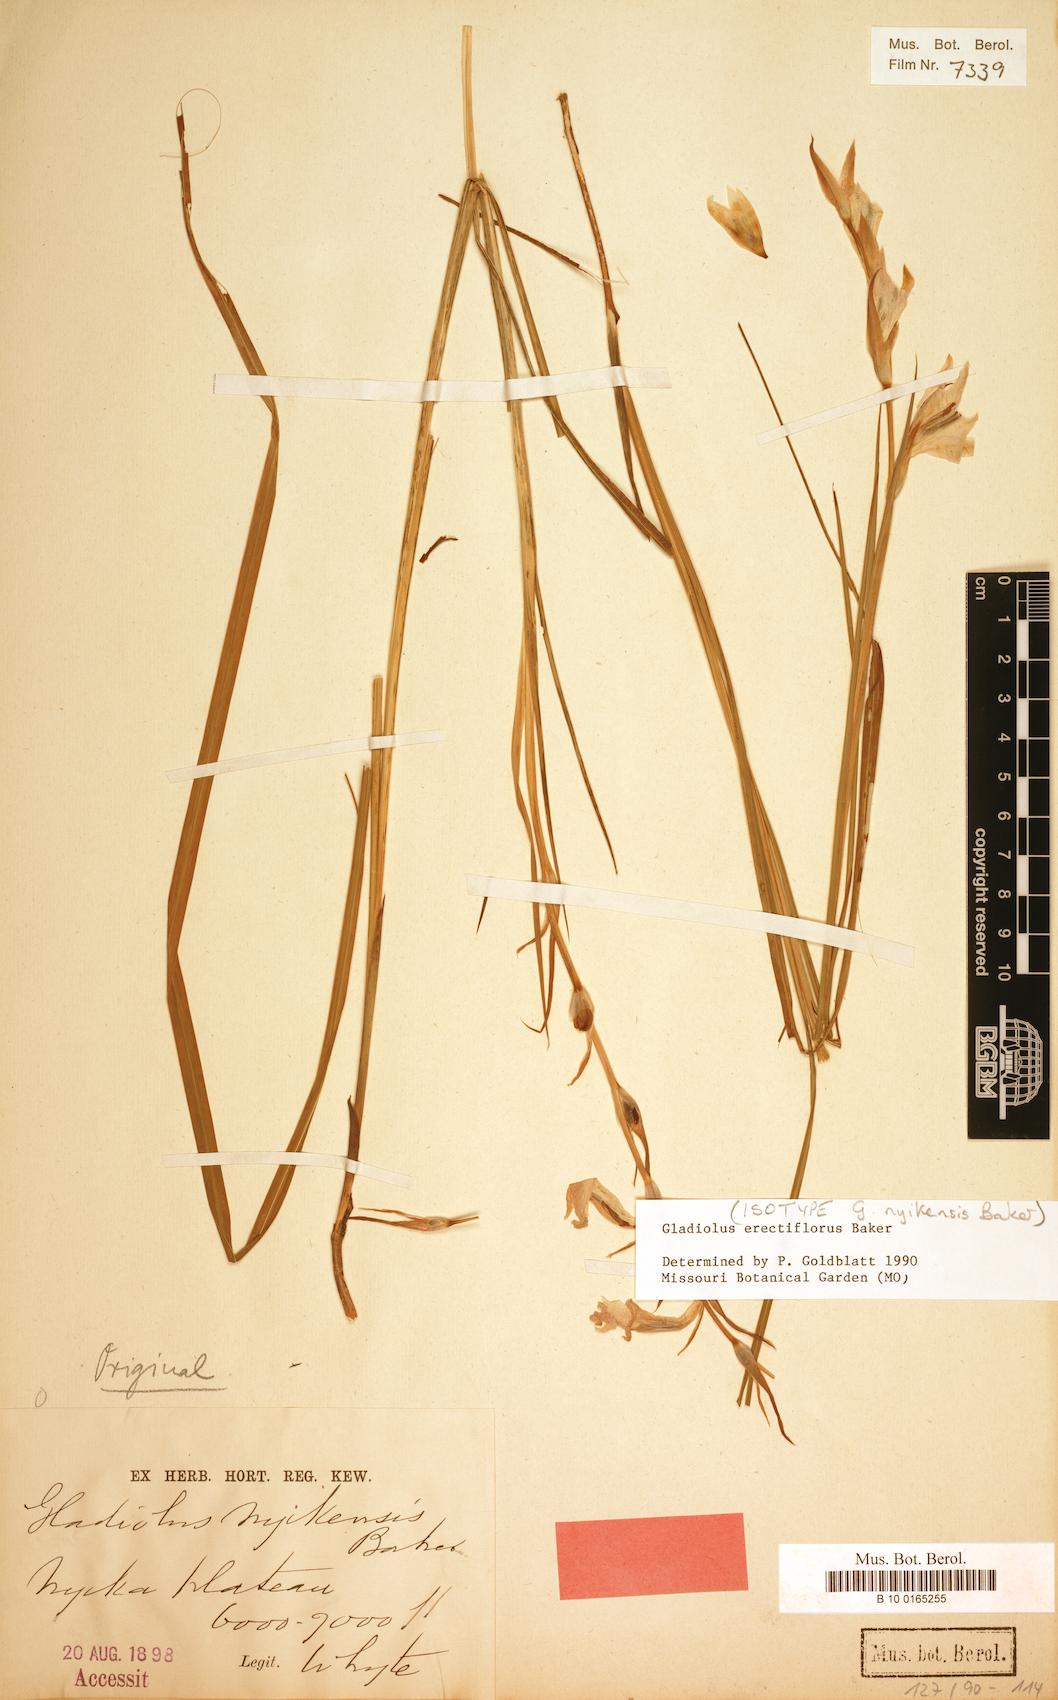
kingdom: Plantae
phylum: Tracheophyta
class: Liliopsida
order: Asparagales
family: Iridaceae
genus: Gladiolus
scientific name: Gladiolus erectiflorus
